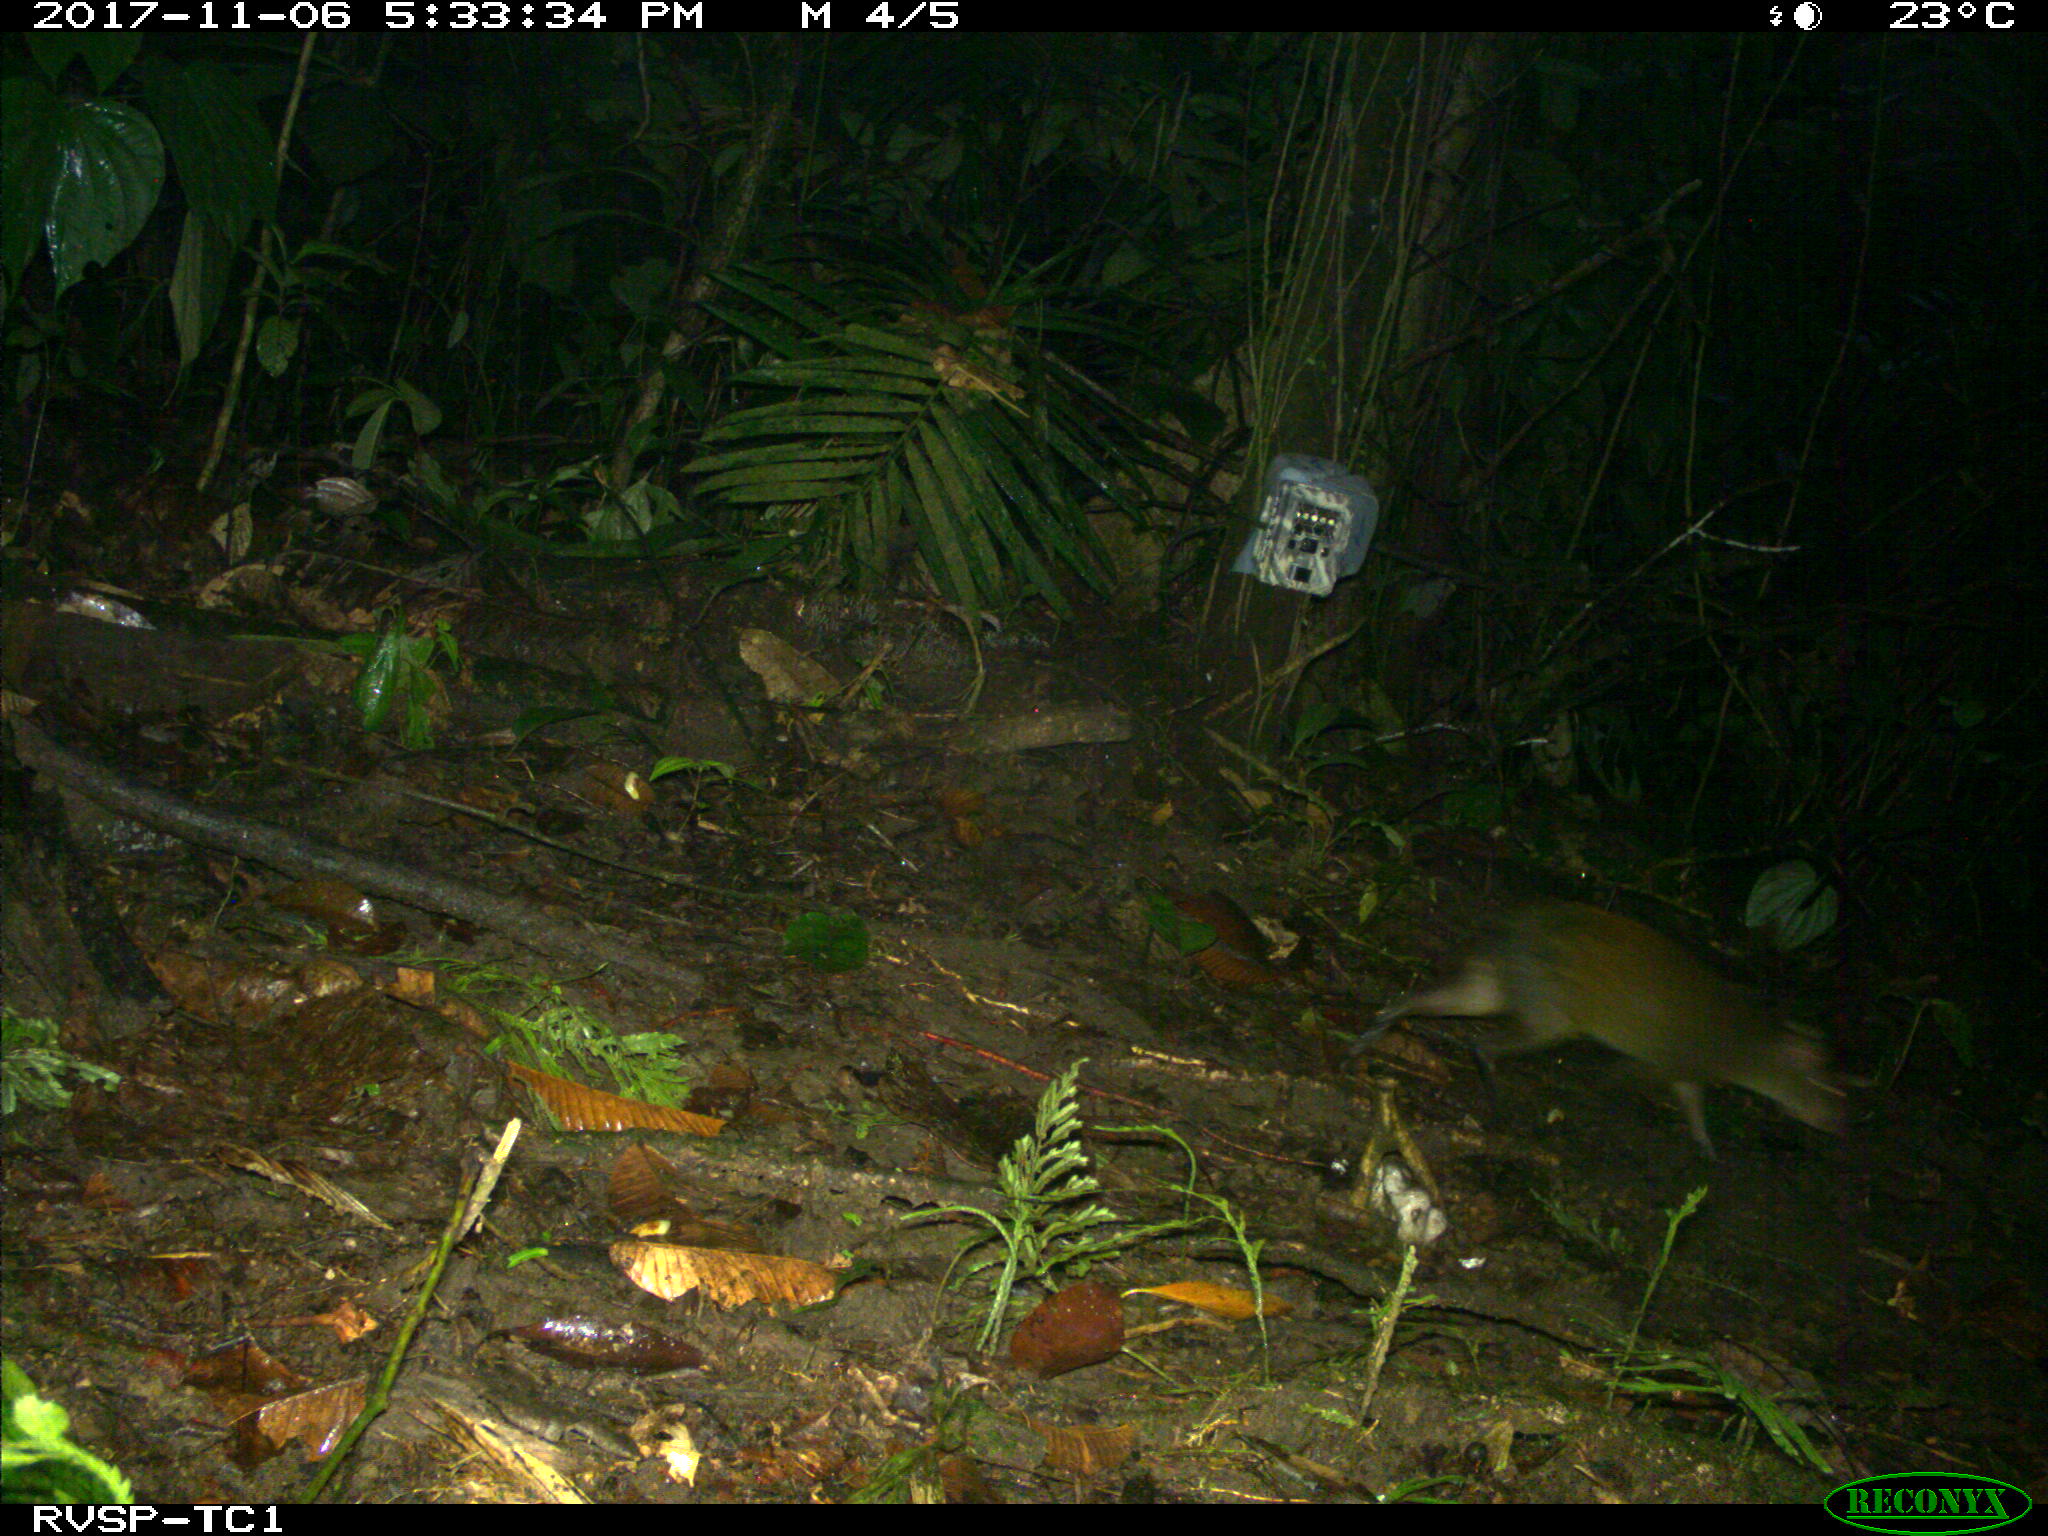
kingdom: Animalia
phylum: Chordata
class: Mammalia
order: Rodentia
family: Dasyproctidae
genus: Dasyprocta
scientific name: Dasyprocta punctata
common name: Central american agouti
